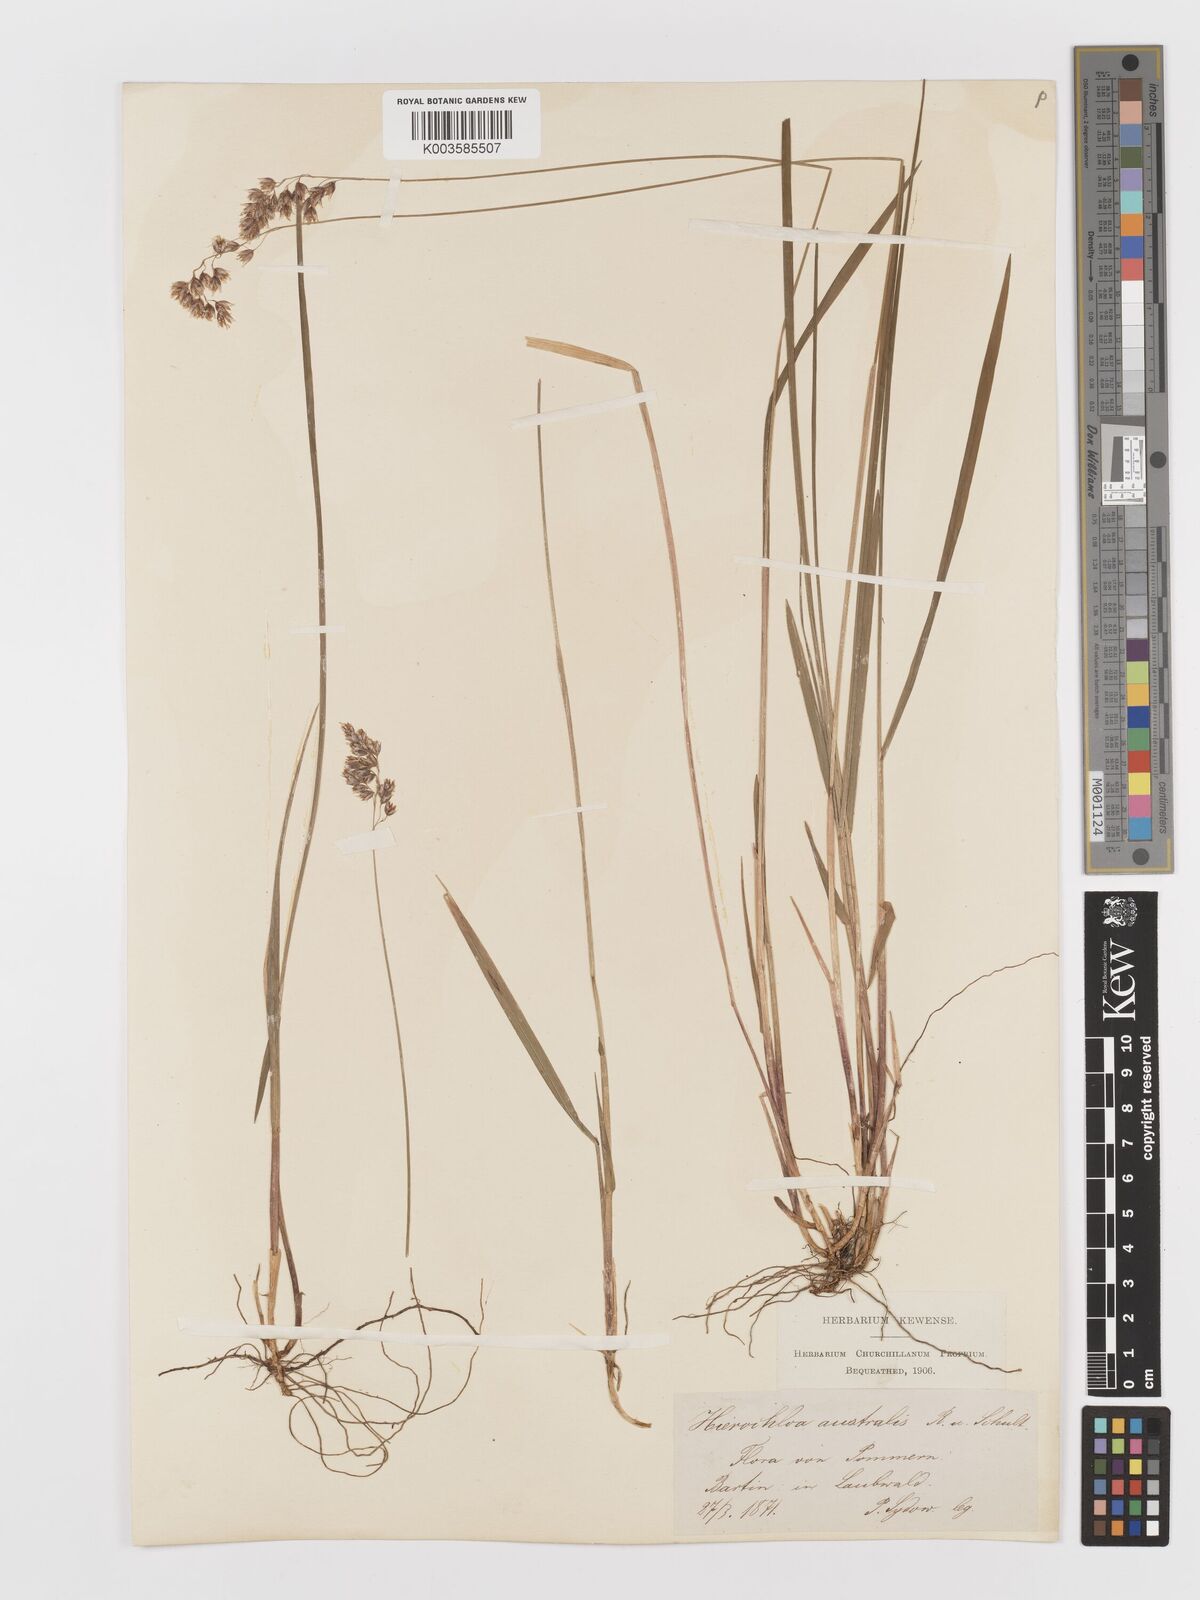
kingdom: Plantae
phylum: Tracheophyta
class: Liliopsida
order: Poales
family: Poaceae
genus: Anthoxanthum
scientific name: Anthoxanthum australe
